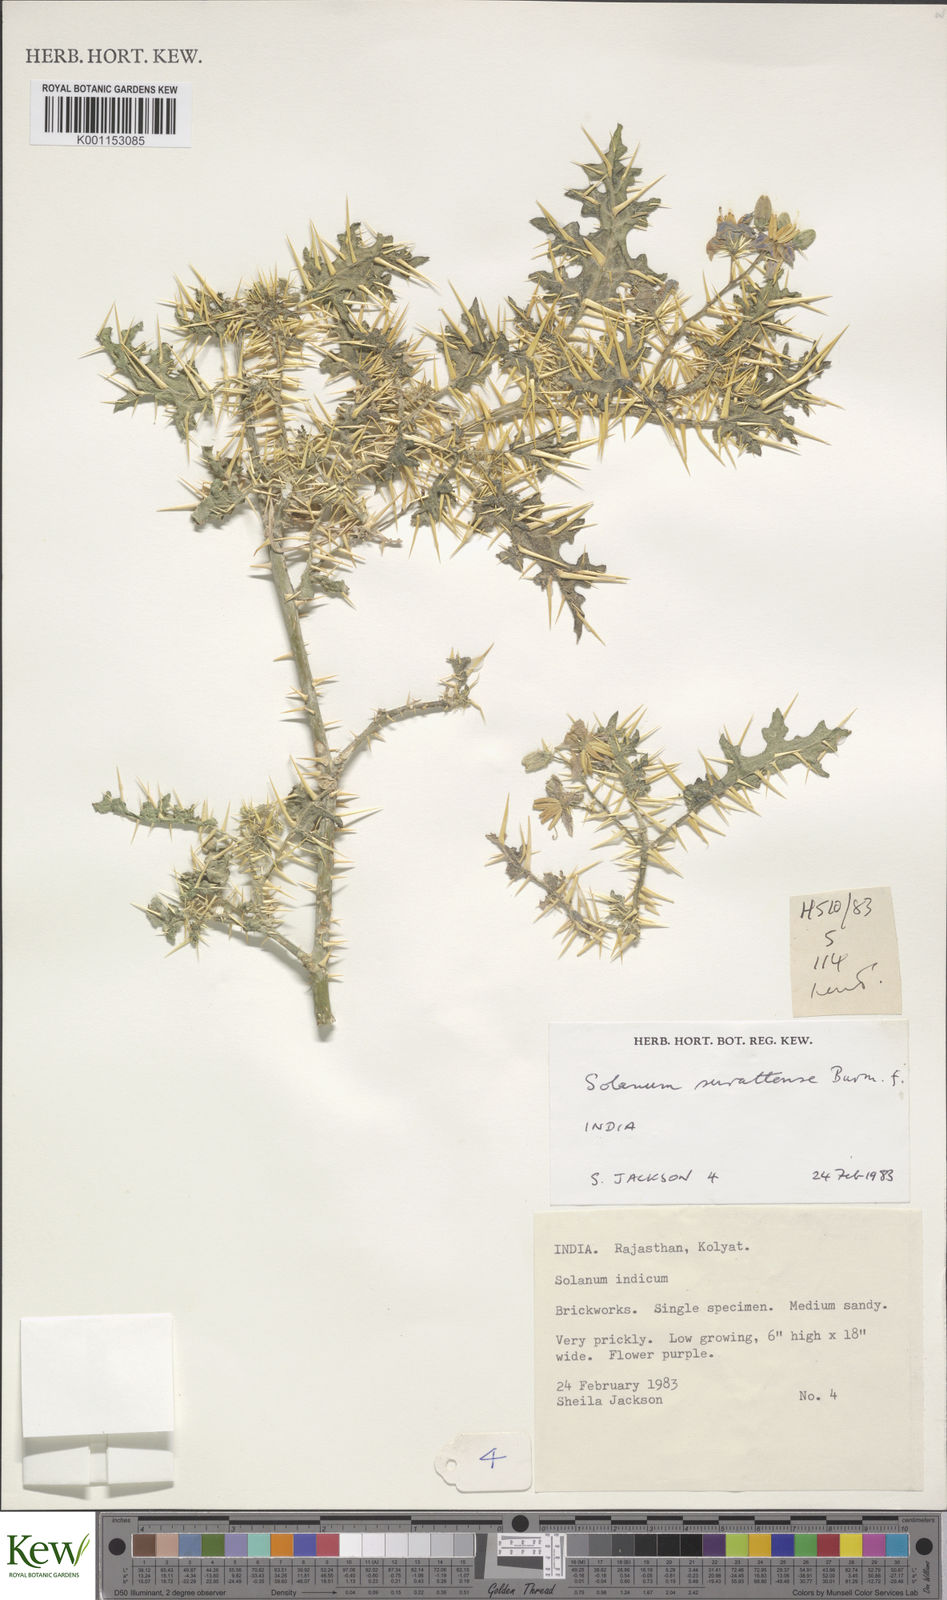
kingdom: Plantae
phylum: Tracheophyta
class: Magnoliopsida
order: Solanales
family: Solanaceae
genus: Solanum
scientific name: Solanum virginianum
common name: Surattense nightshade
